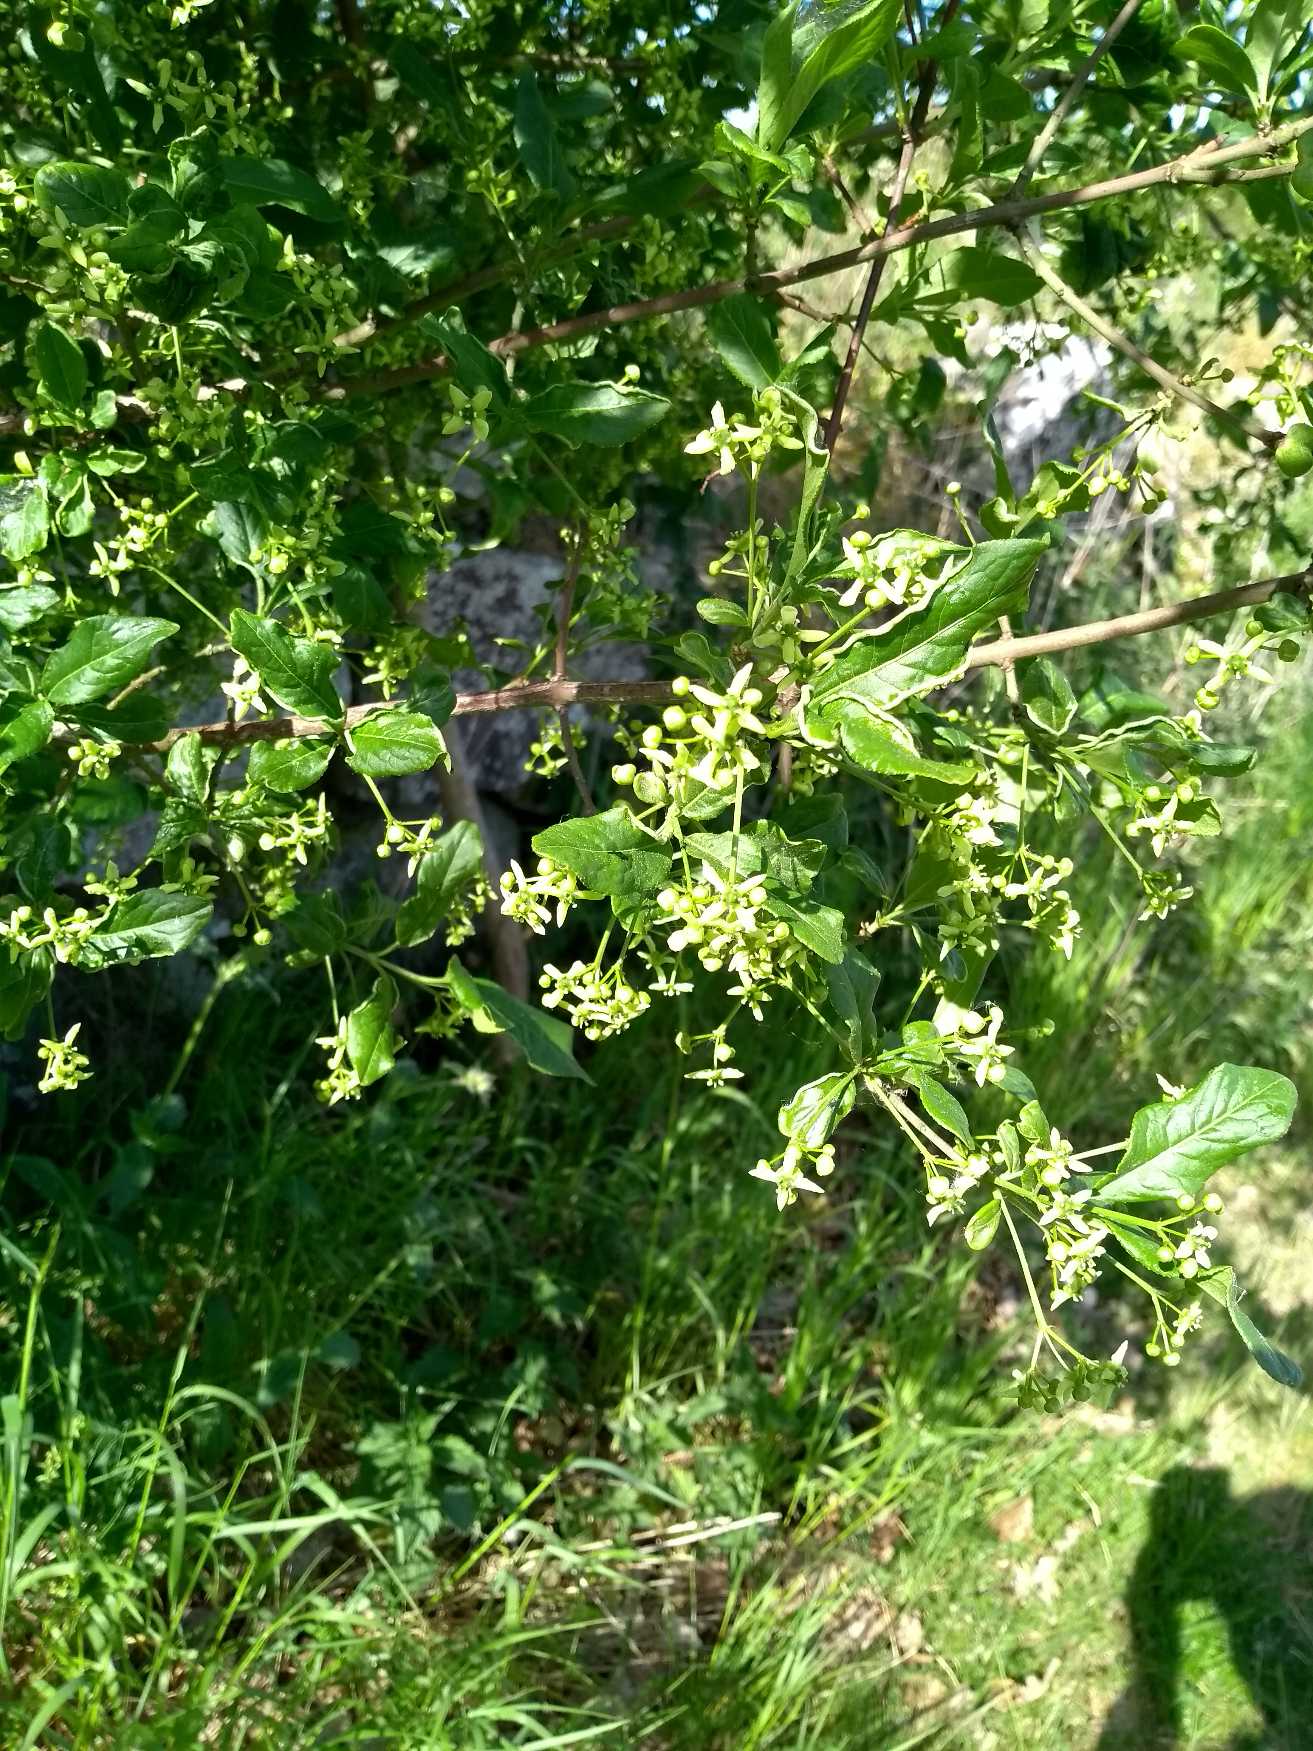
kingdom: Plantae
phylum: Tracheophyta
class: Magnoliopsida
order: Celastrales
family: Celastraceae
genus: Euonymus
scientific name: Euonymus europaeus
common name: Benved
